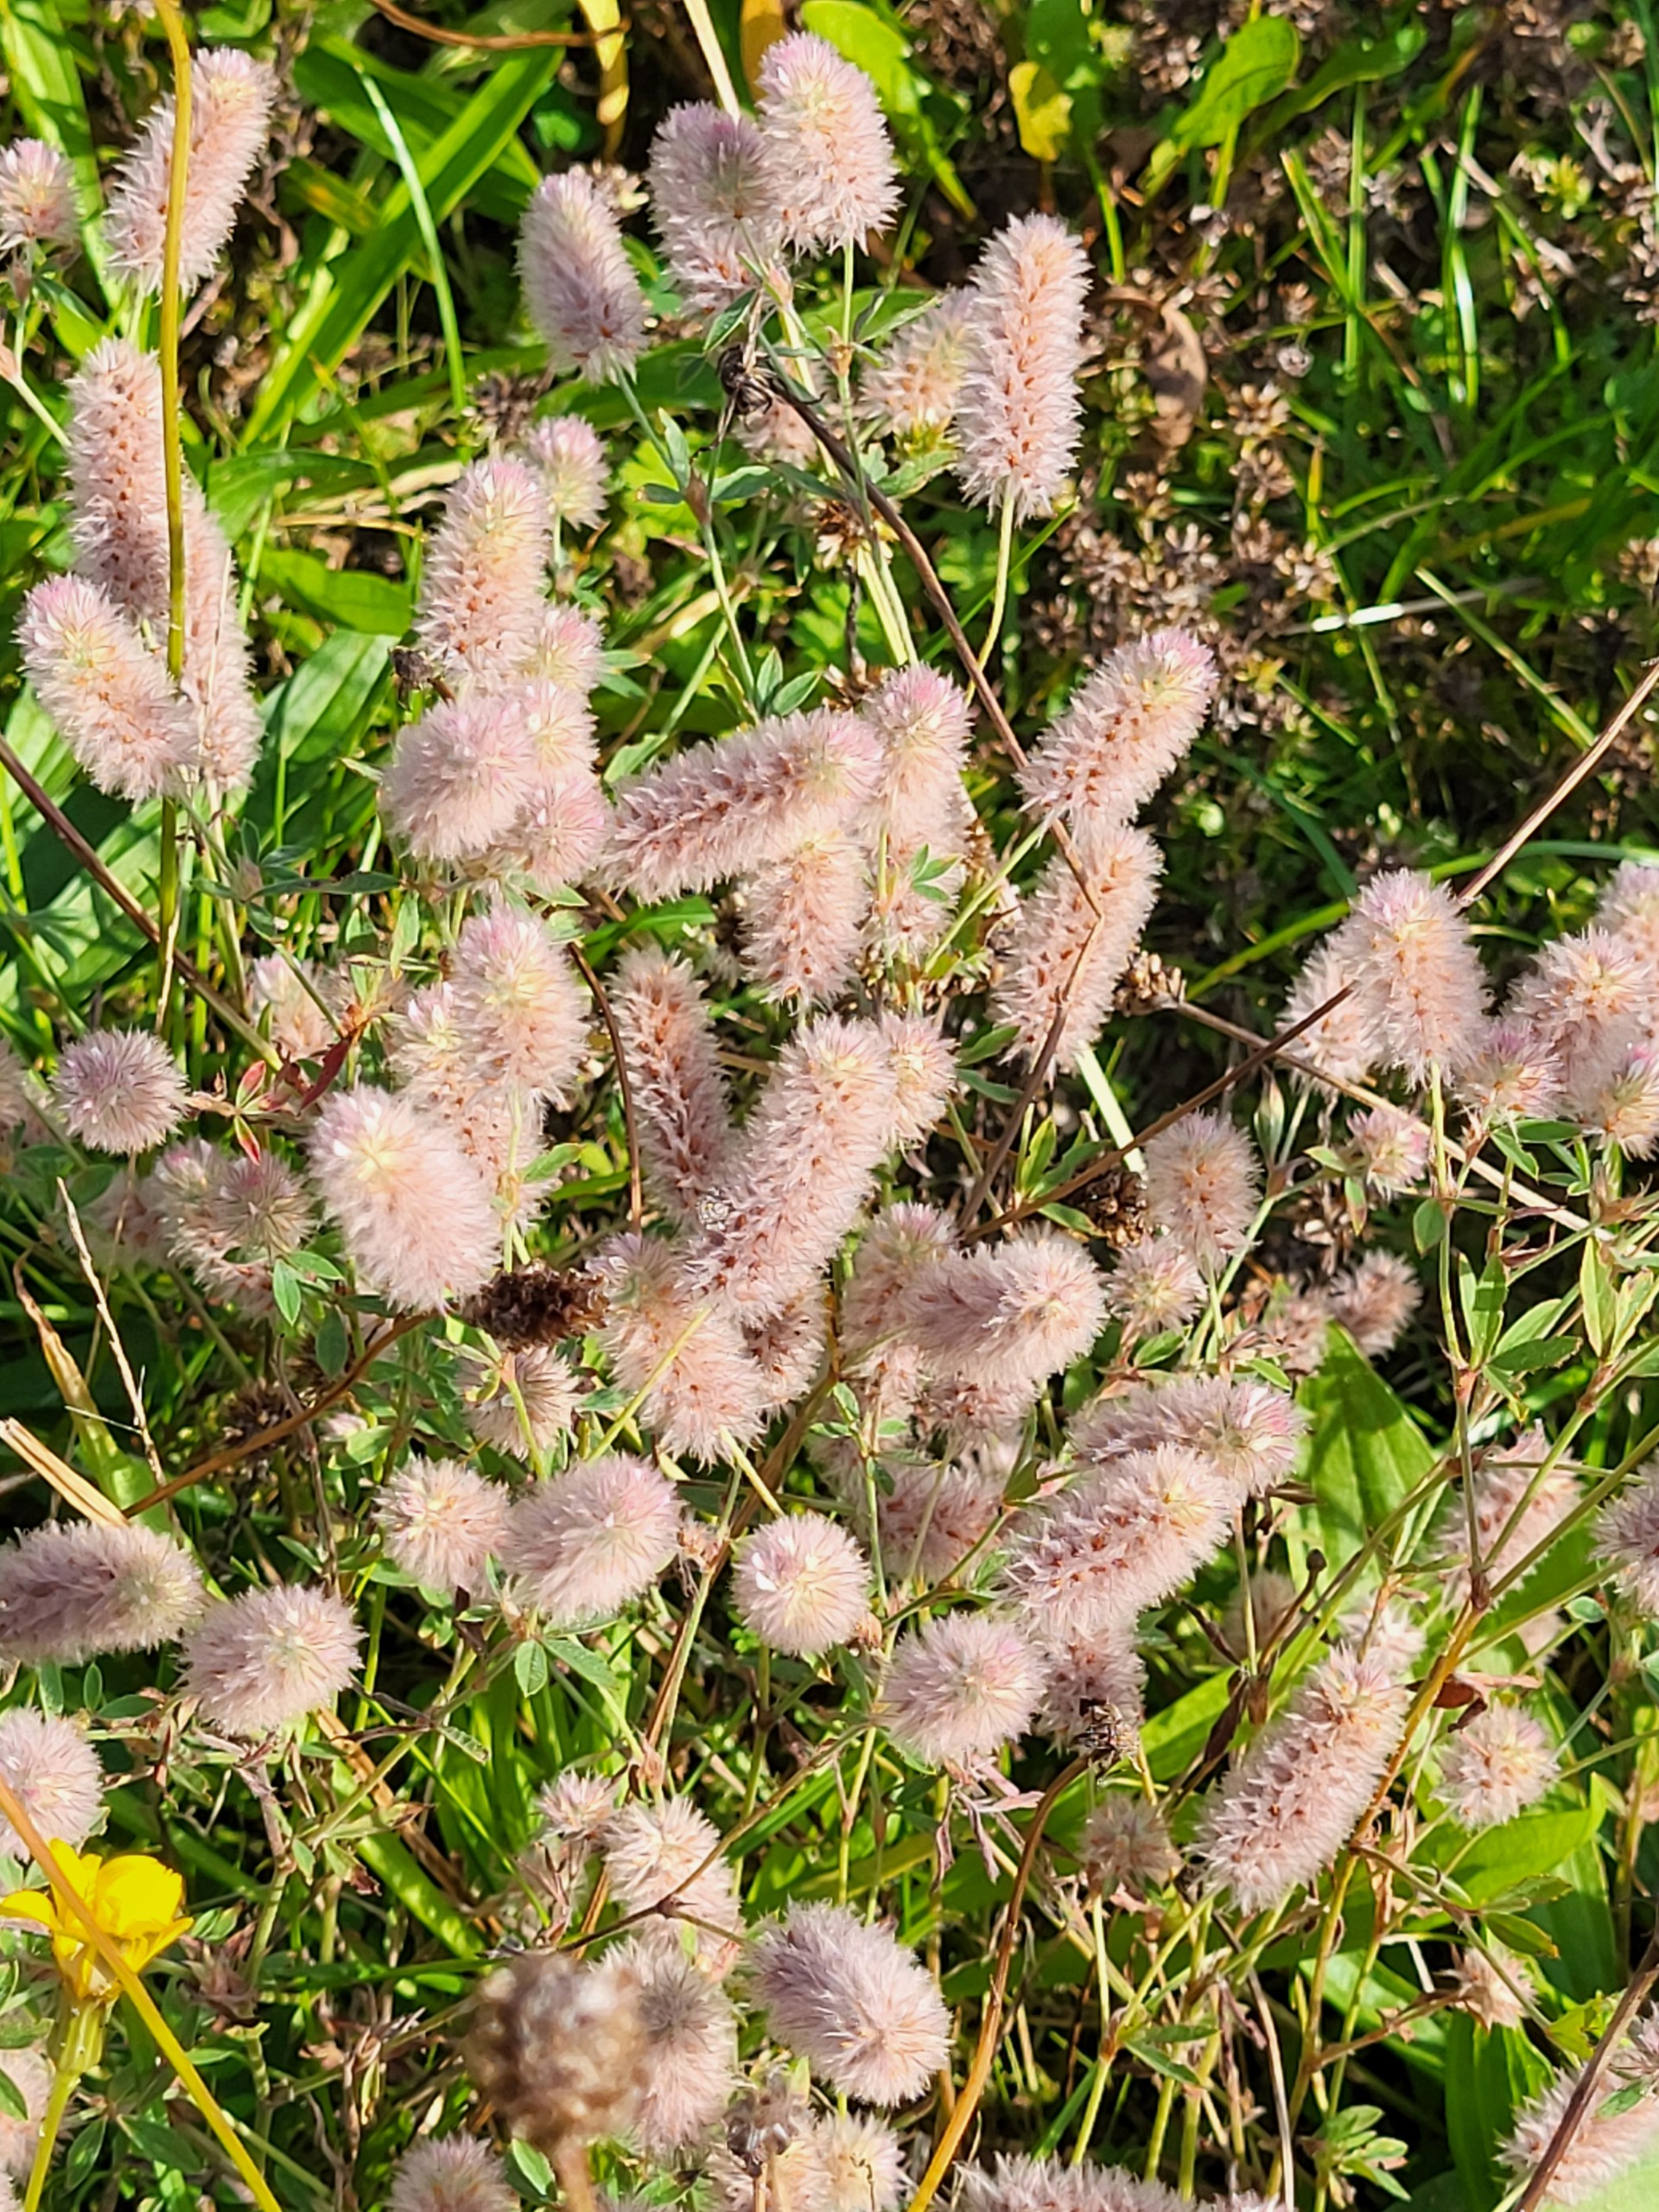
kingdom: Plantae
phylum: Tracheophyta
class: Magnoliopsida
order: Fabales
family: Fabaceae
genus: Trifolium
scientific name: Trifolium arvense
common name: Hare-kløver
